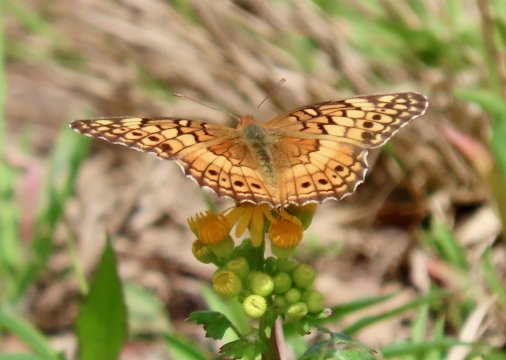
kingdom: Animalia
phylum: Arthropoda
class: Insecta
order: Lepidoptera
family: Nymphalidae
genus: Euptoieta
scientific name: Euptoieta claudia
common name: Variegated Fritillary
